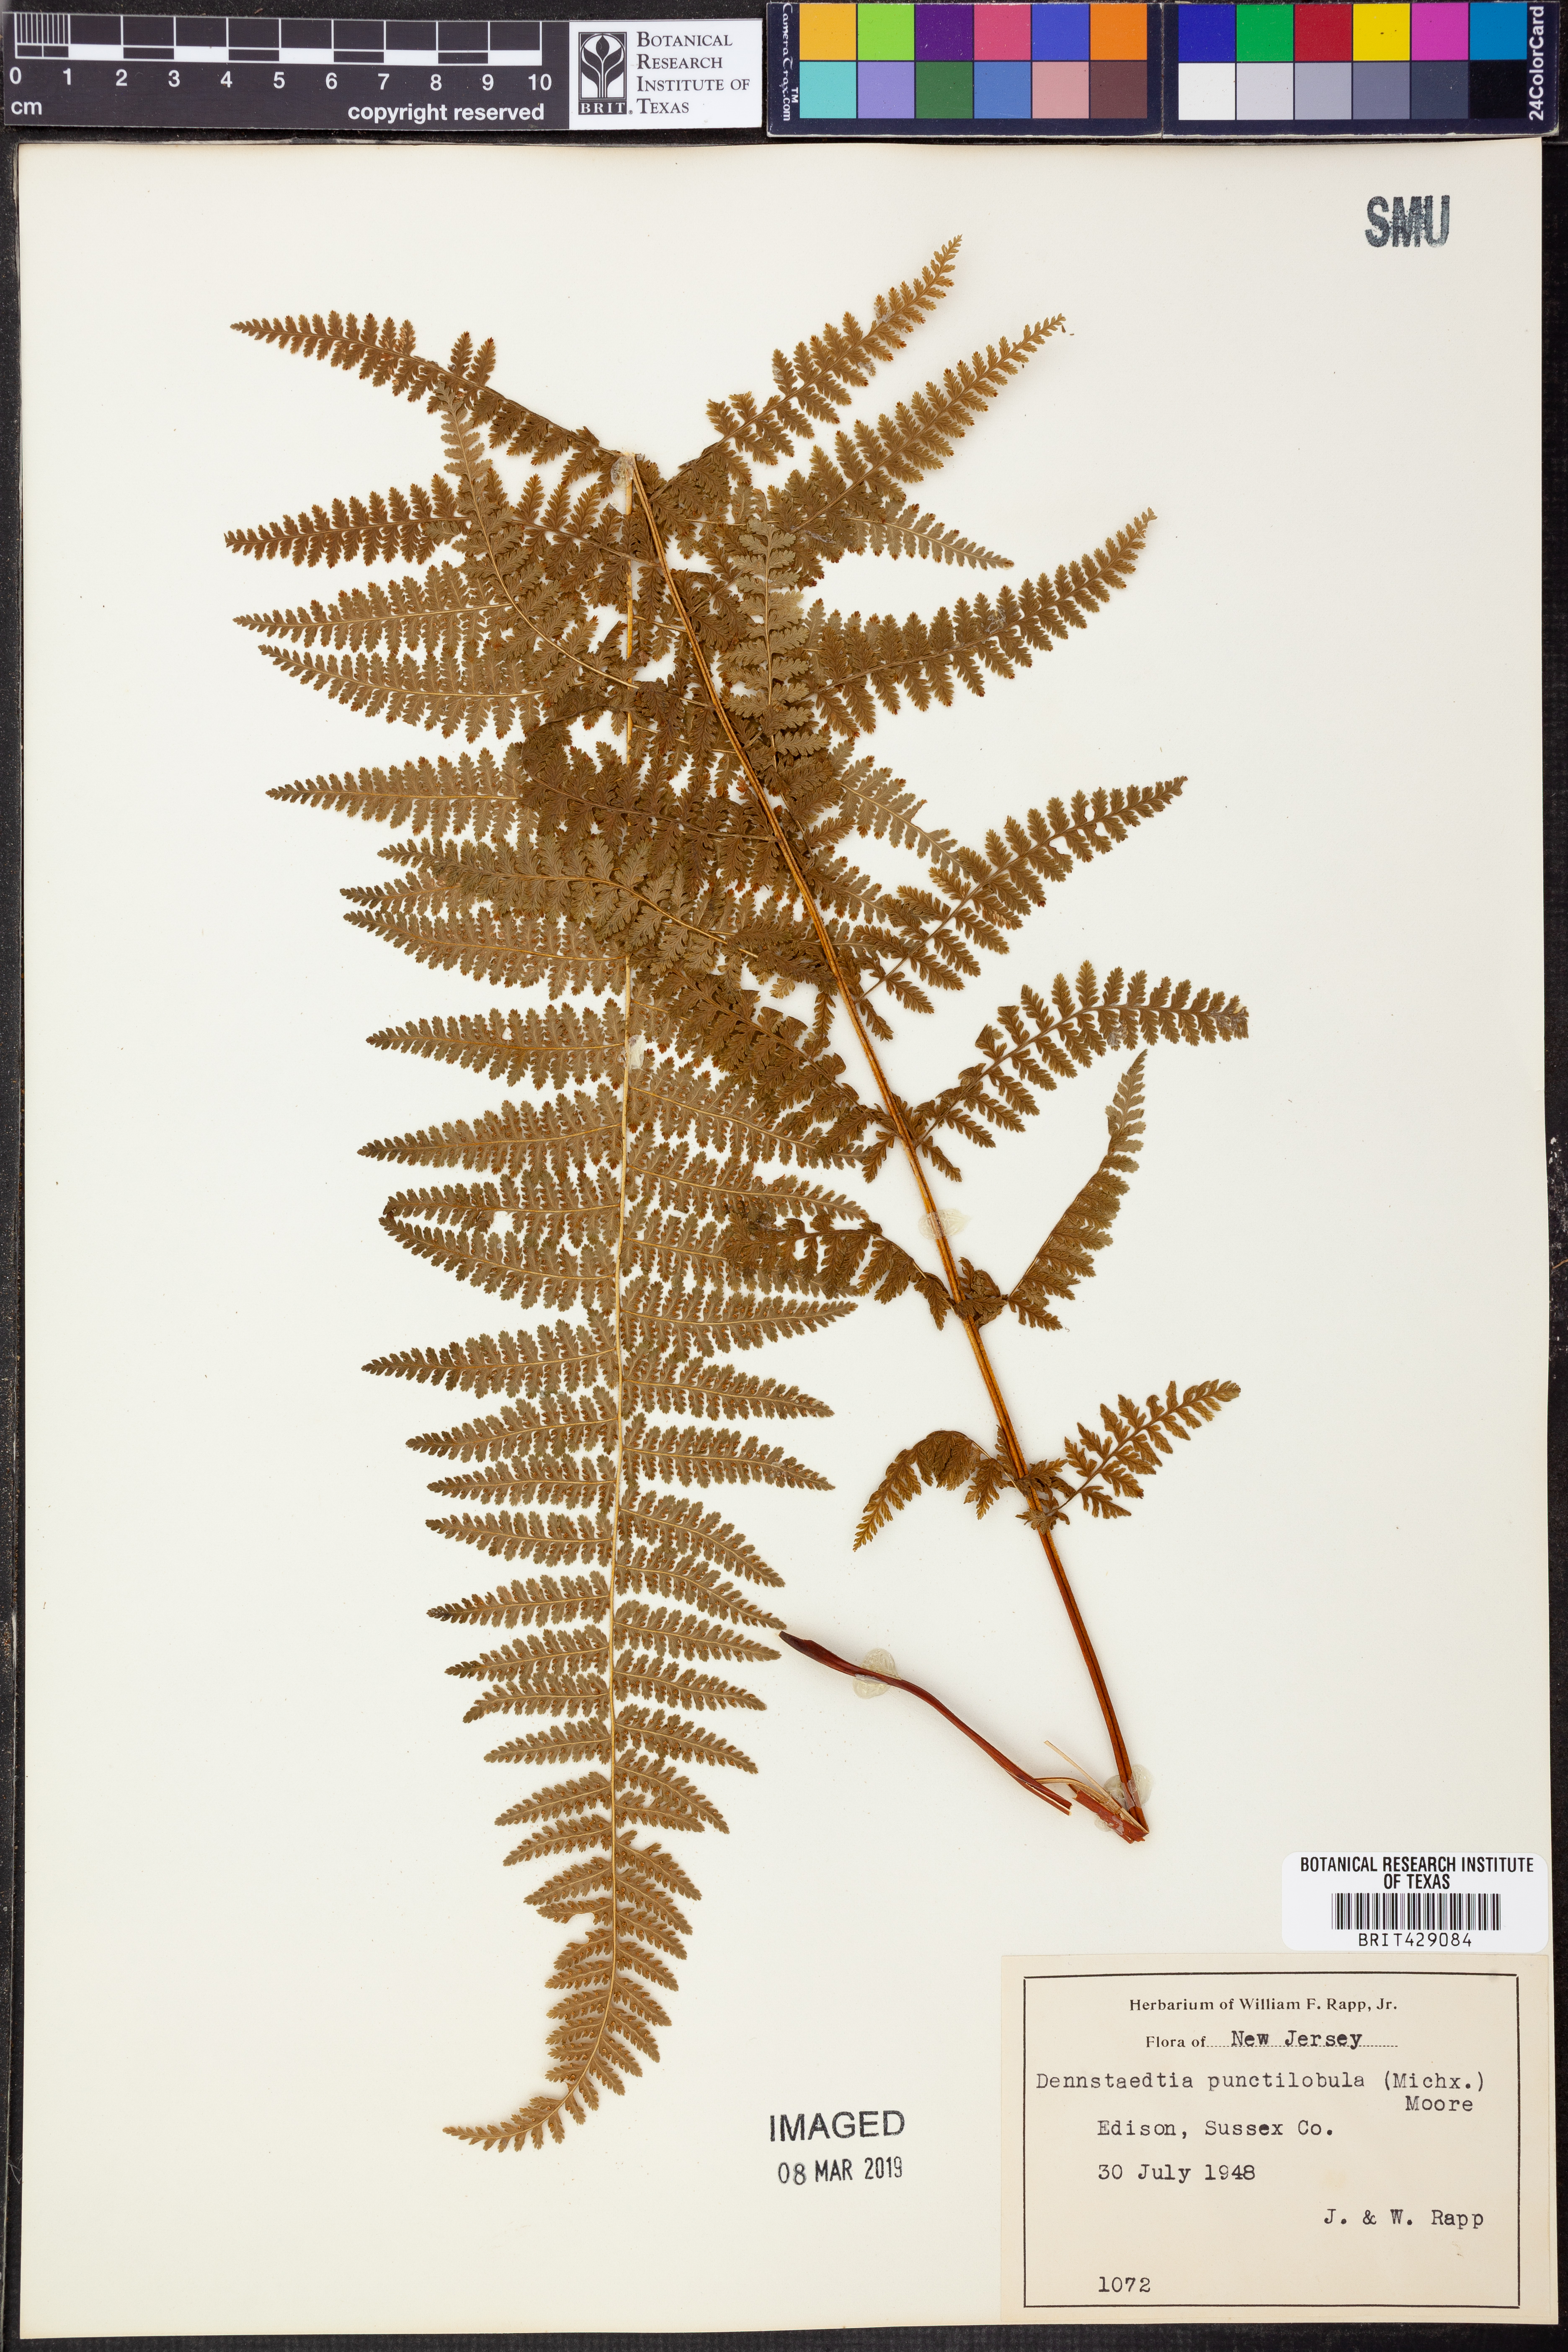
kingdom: Plantae
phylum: Tracheophyta
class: Polypodiopsida
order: Polypodiales
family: Dennstaedtiaceae
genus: Sitobolium
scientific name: Sitobolium punctilobum
